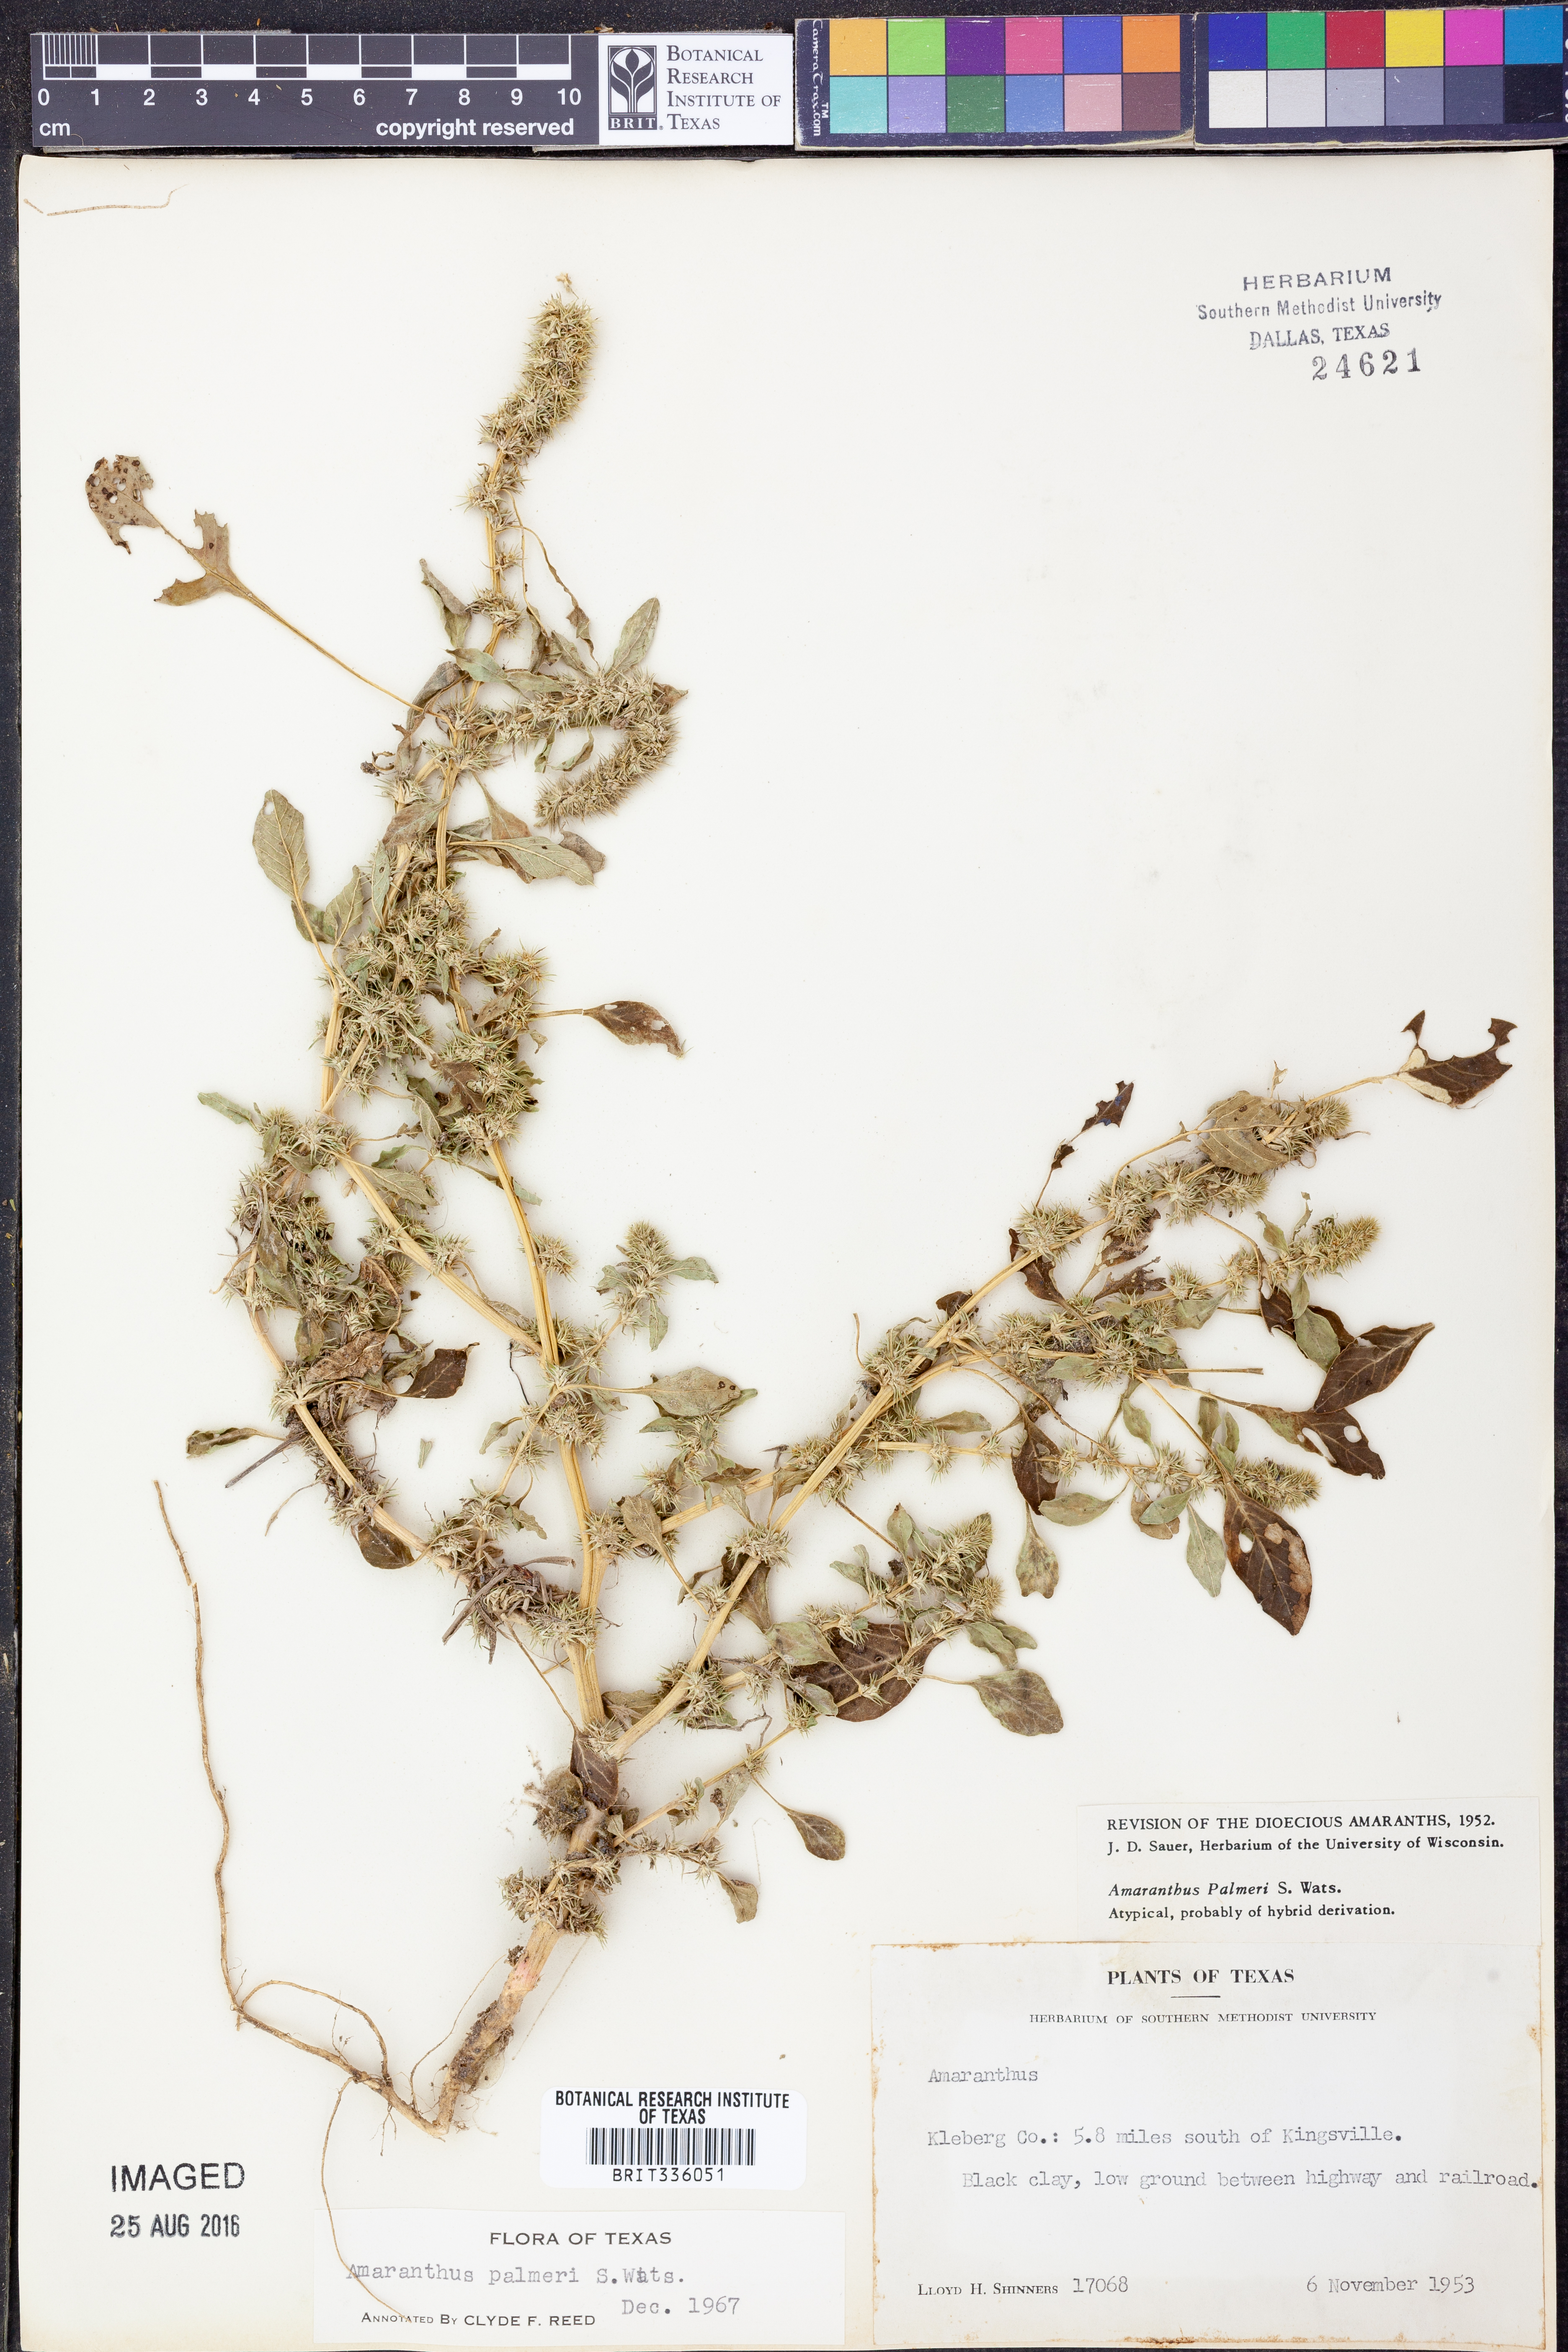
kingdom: Plantae
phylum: Tracheophyta
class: Magnoliopsida
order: Caryophyllales
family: Amaranthaceae
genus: Amaranthus
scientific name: Amaranthus palmeri
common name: Dioecious amaranth
